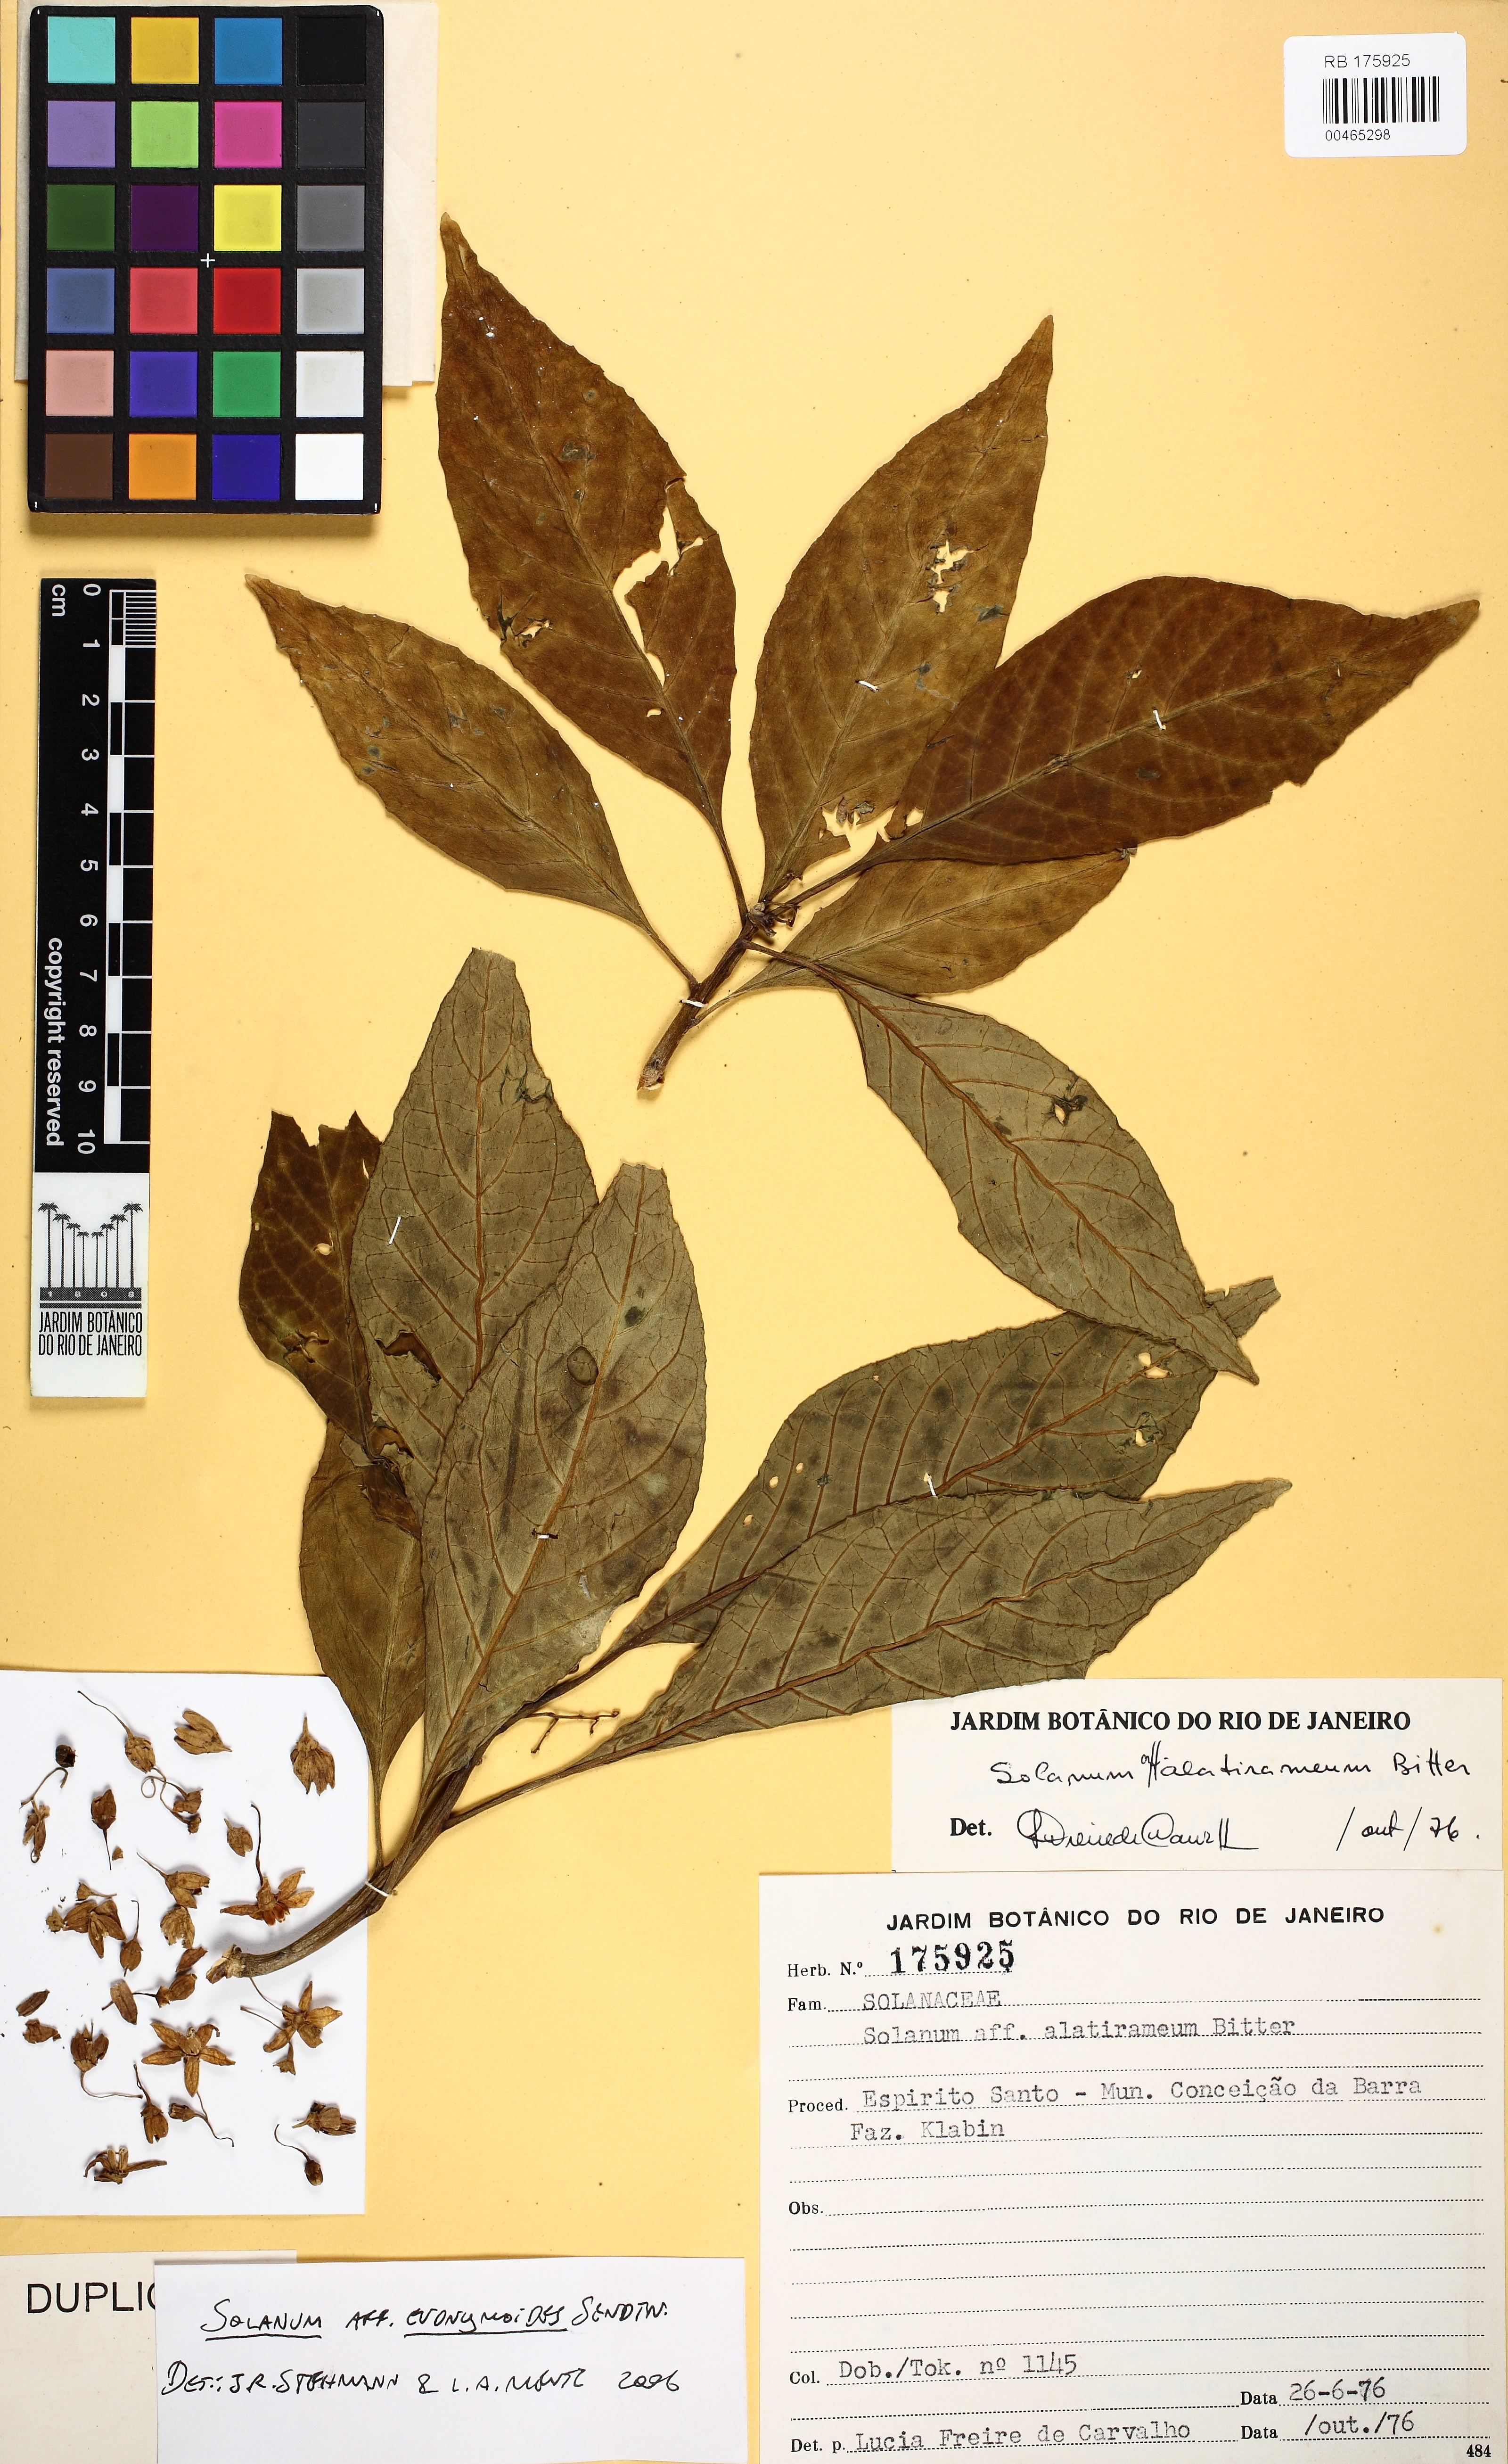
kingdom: Plantae
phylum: Tracheophyta
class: Magnoliopsida
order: Solanales
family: Solanaceae
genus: Solanum
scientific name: Solanum evonymoides
